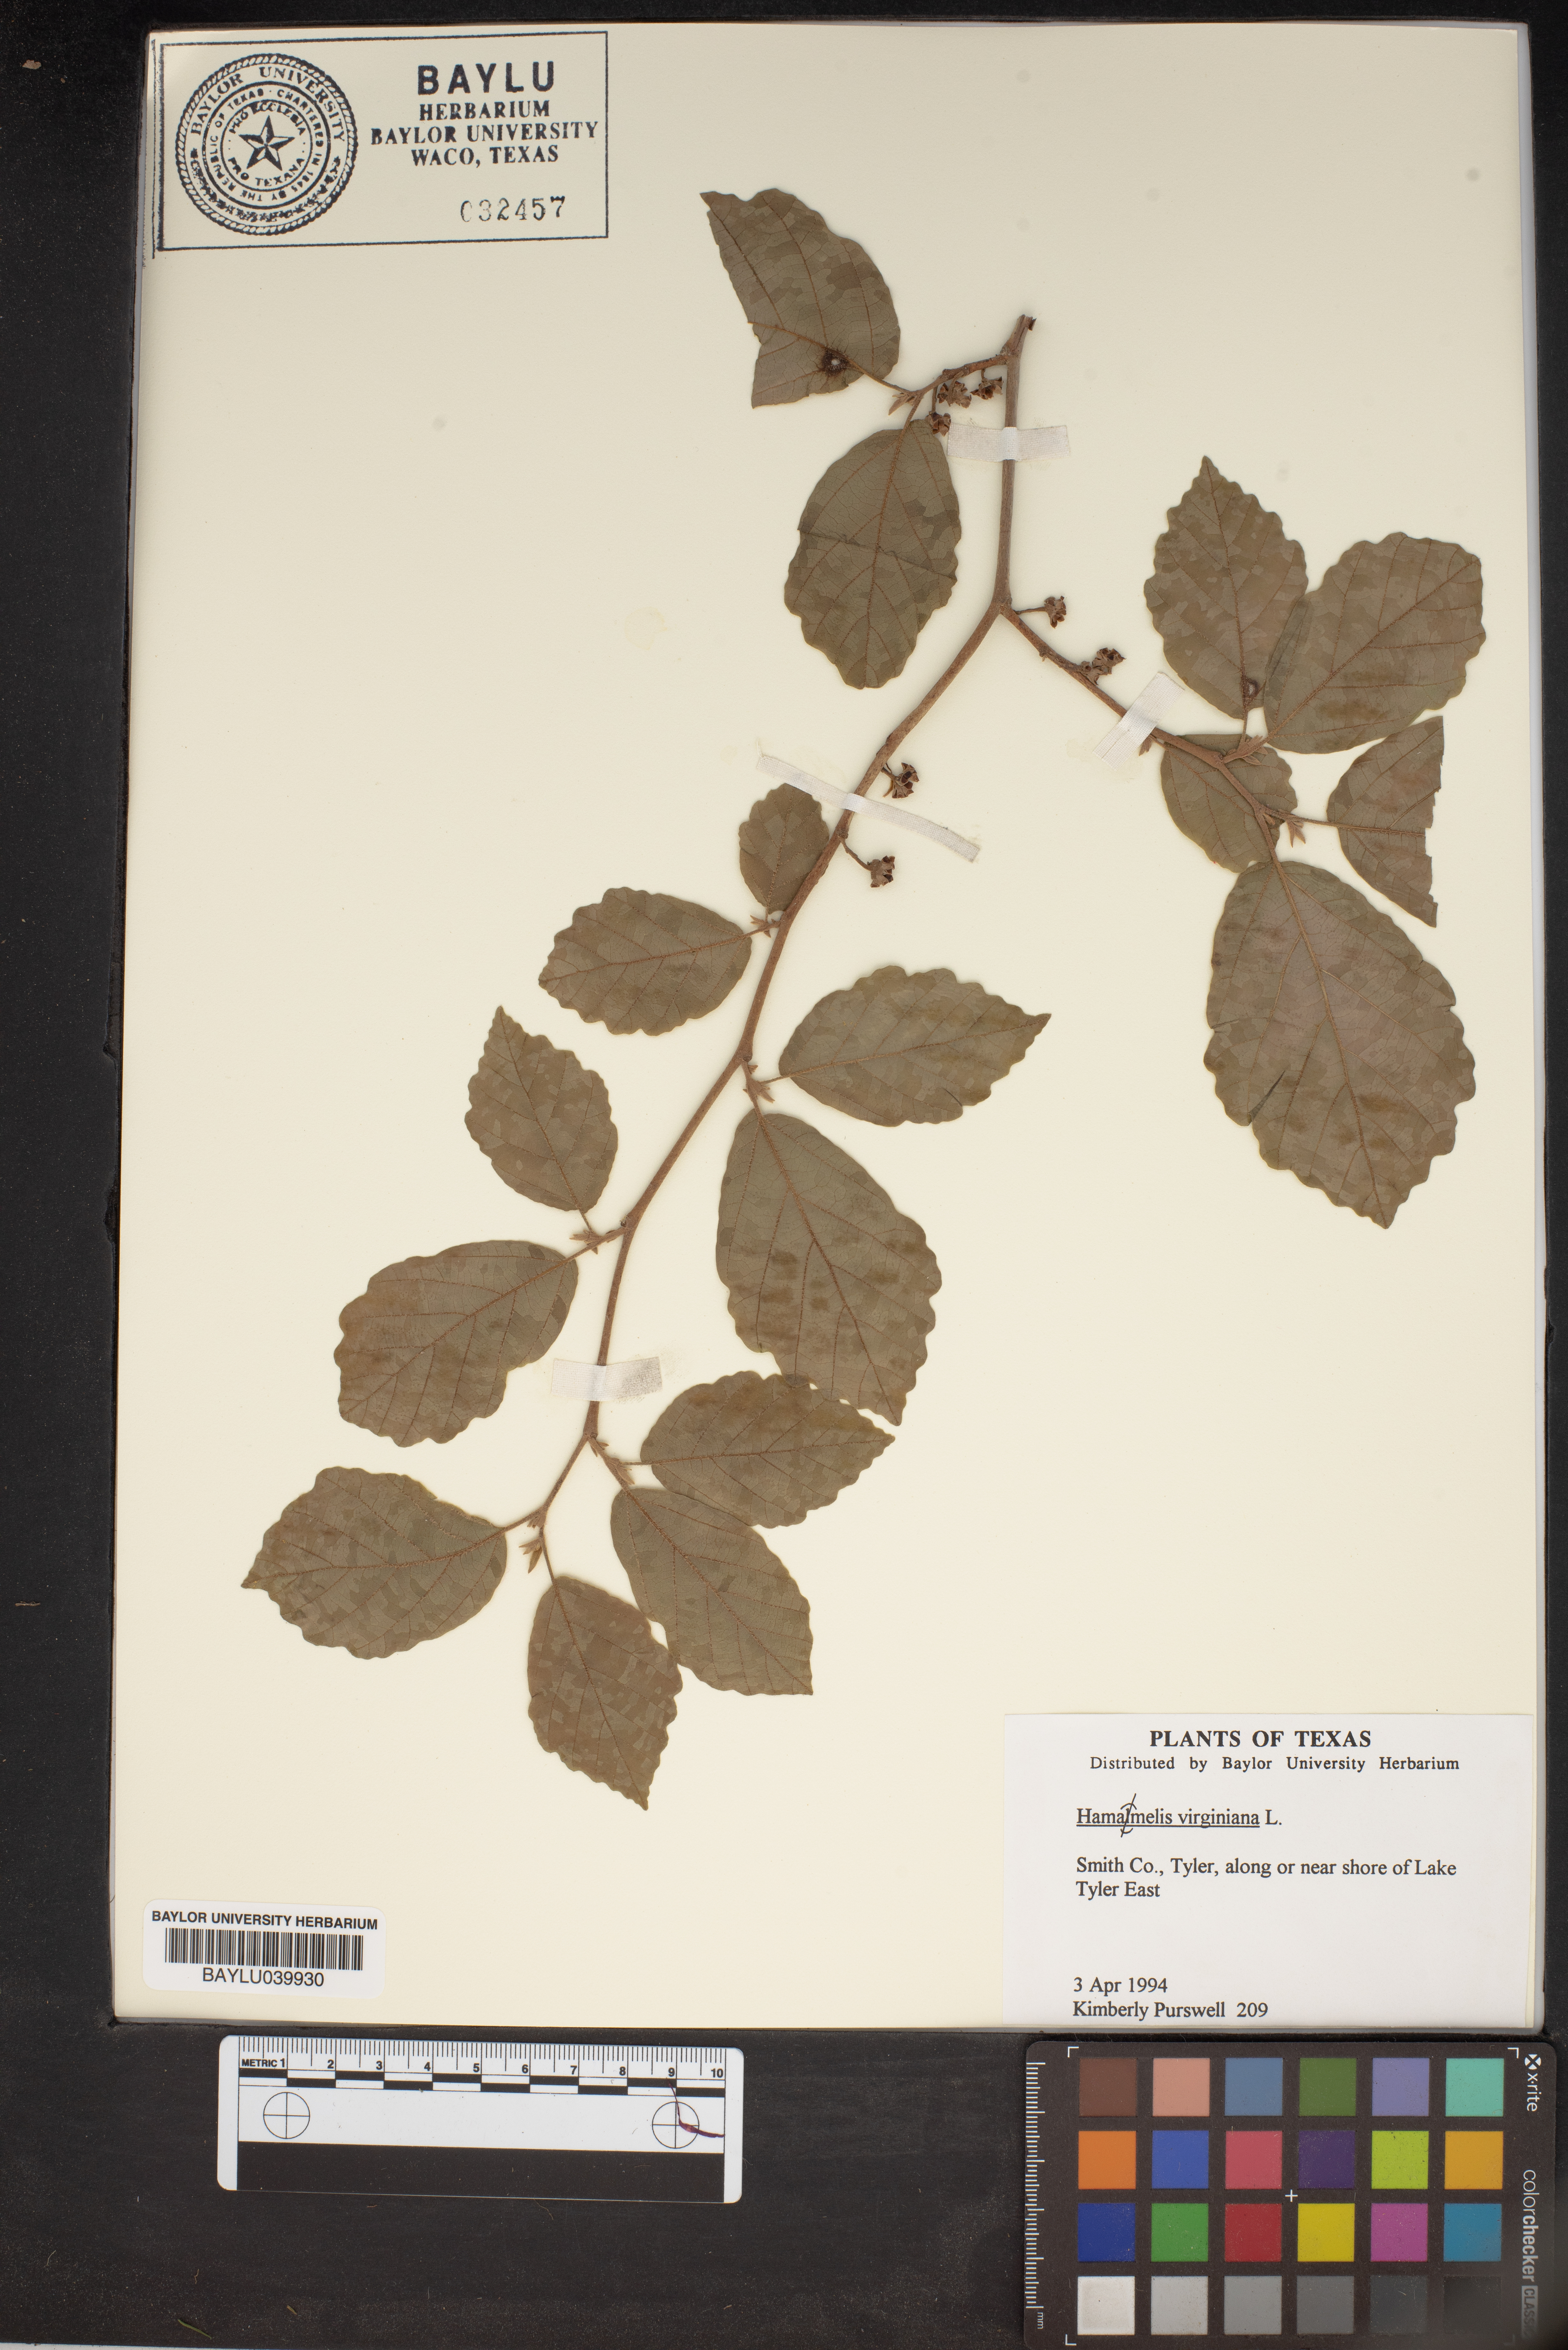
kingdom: Plantae
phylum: Tracheophyta
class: Magnoliopsida
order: Saxifragales
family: Hamamelidaceae
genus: Hamamelis
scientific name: Hamamelis virginiana
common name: Witch-hazel
